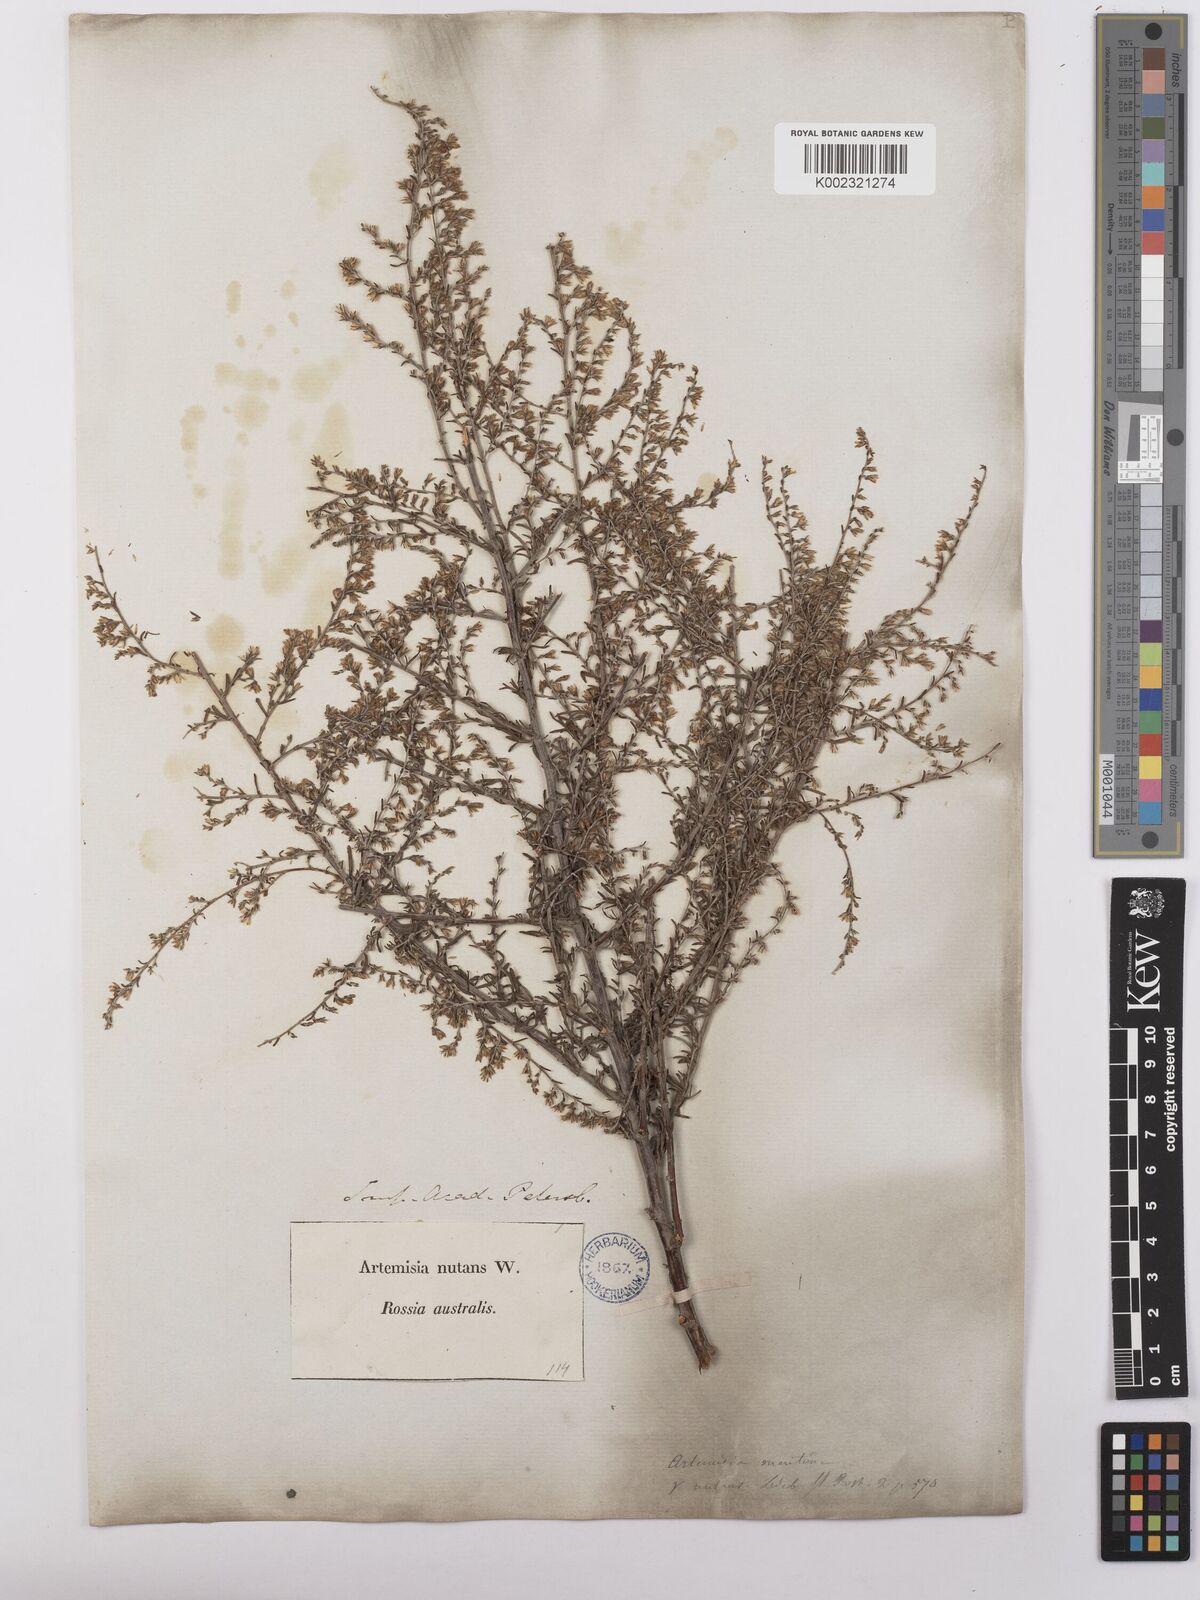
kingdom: Plantae
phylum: Tracheophyta
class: Magnoliopsida
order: Asterales
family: Asteraceae
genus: Artemisia
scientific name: Artemisia nutans
